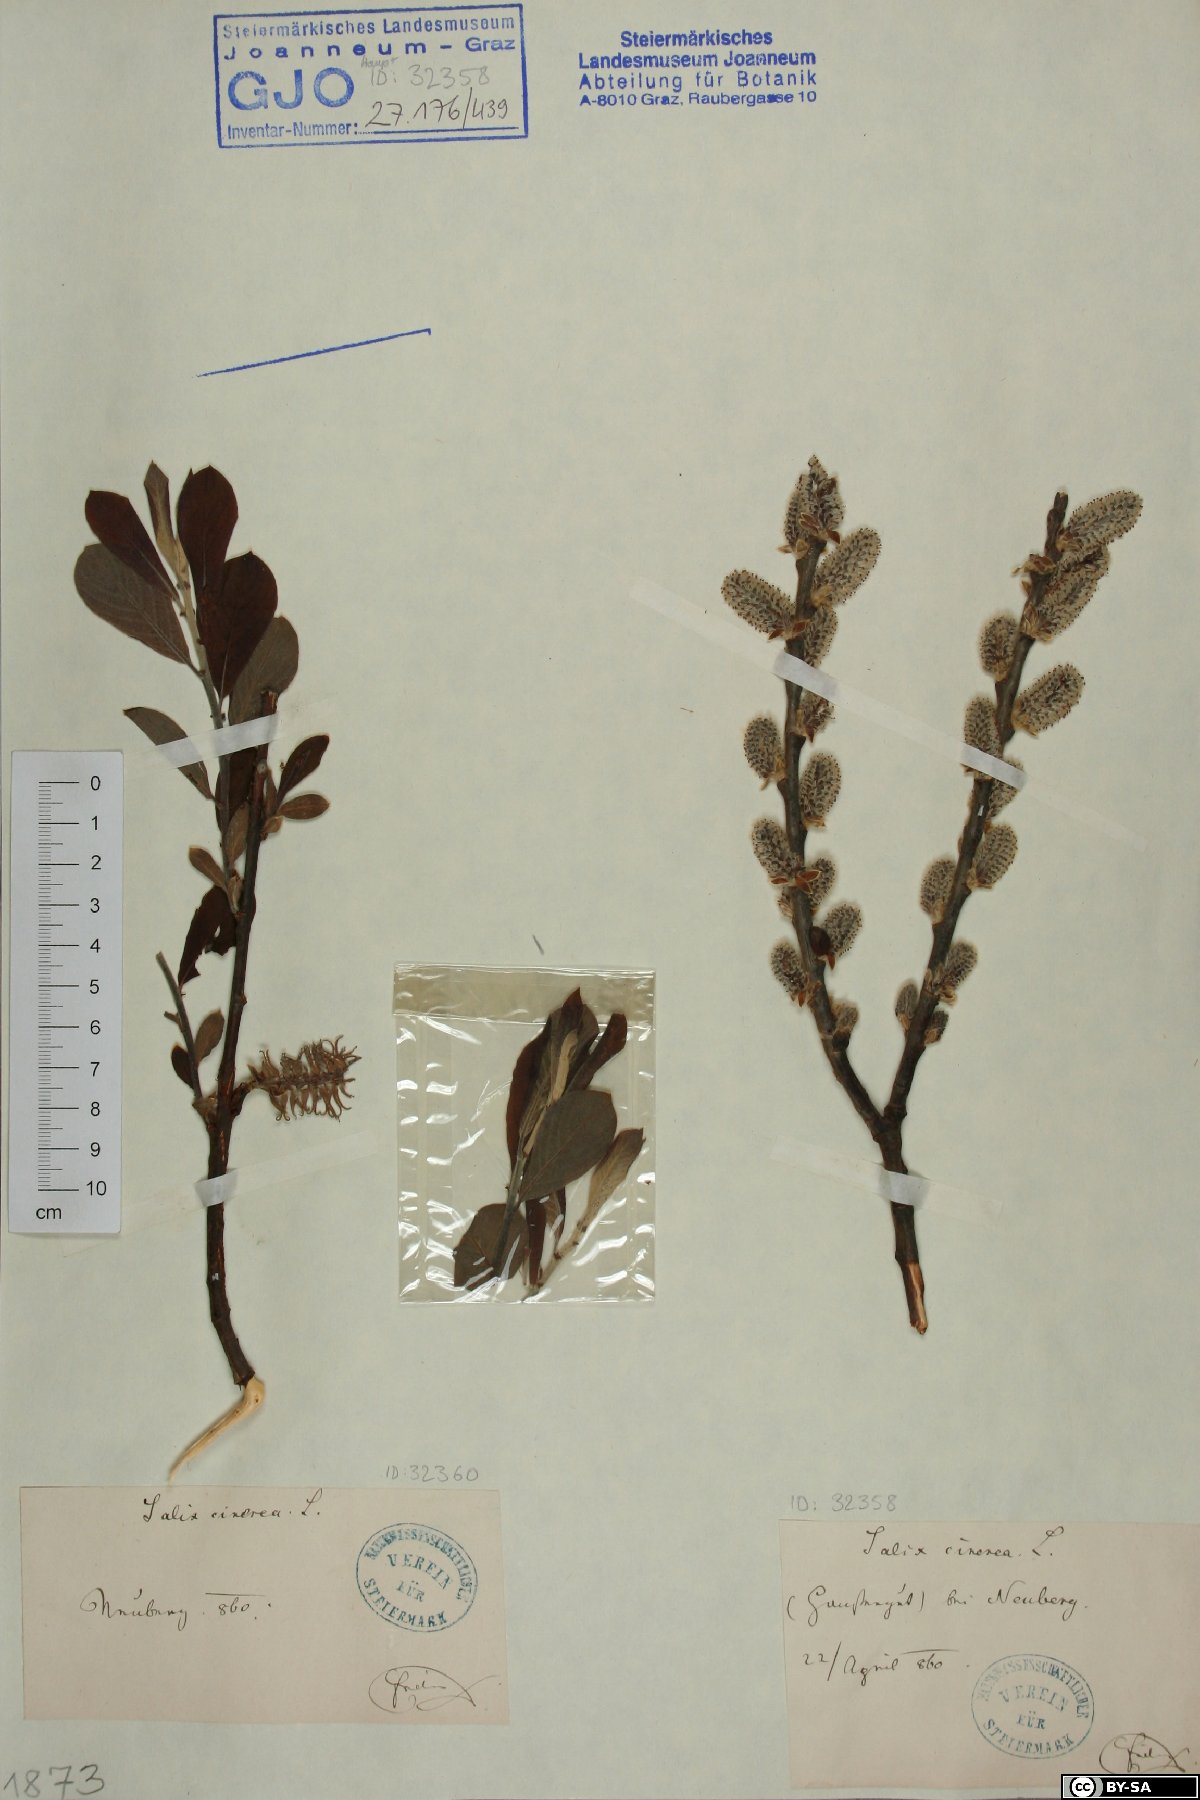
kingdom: Plantae
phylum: Tracheophyta
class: Magnoliopsida
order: Malpighiales
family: Salicaceae
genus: Salix
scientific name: Salix cinerea
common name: Common sallow
